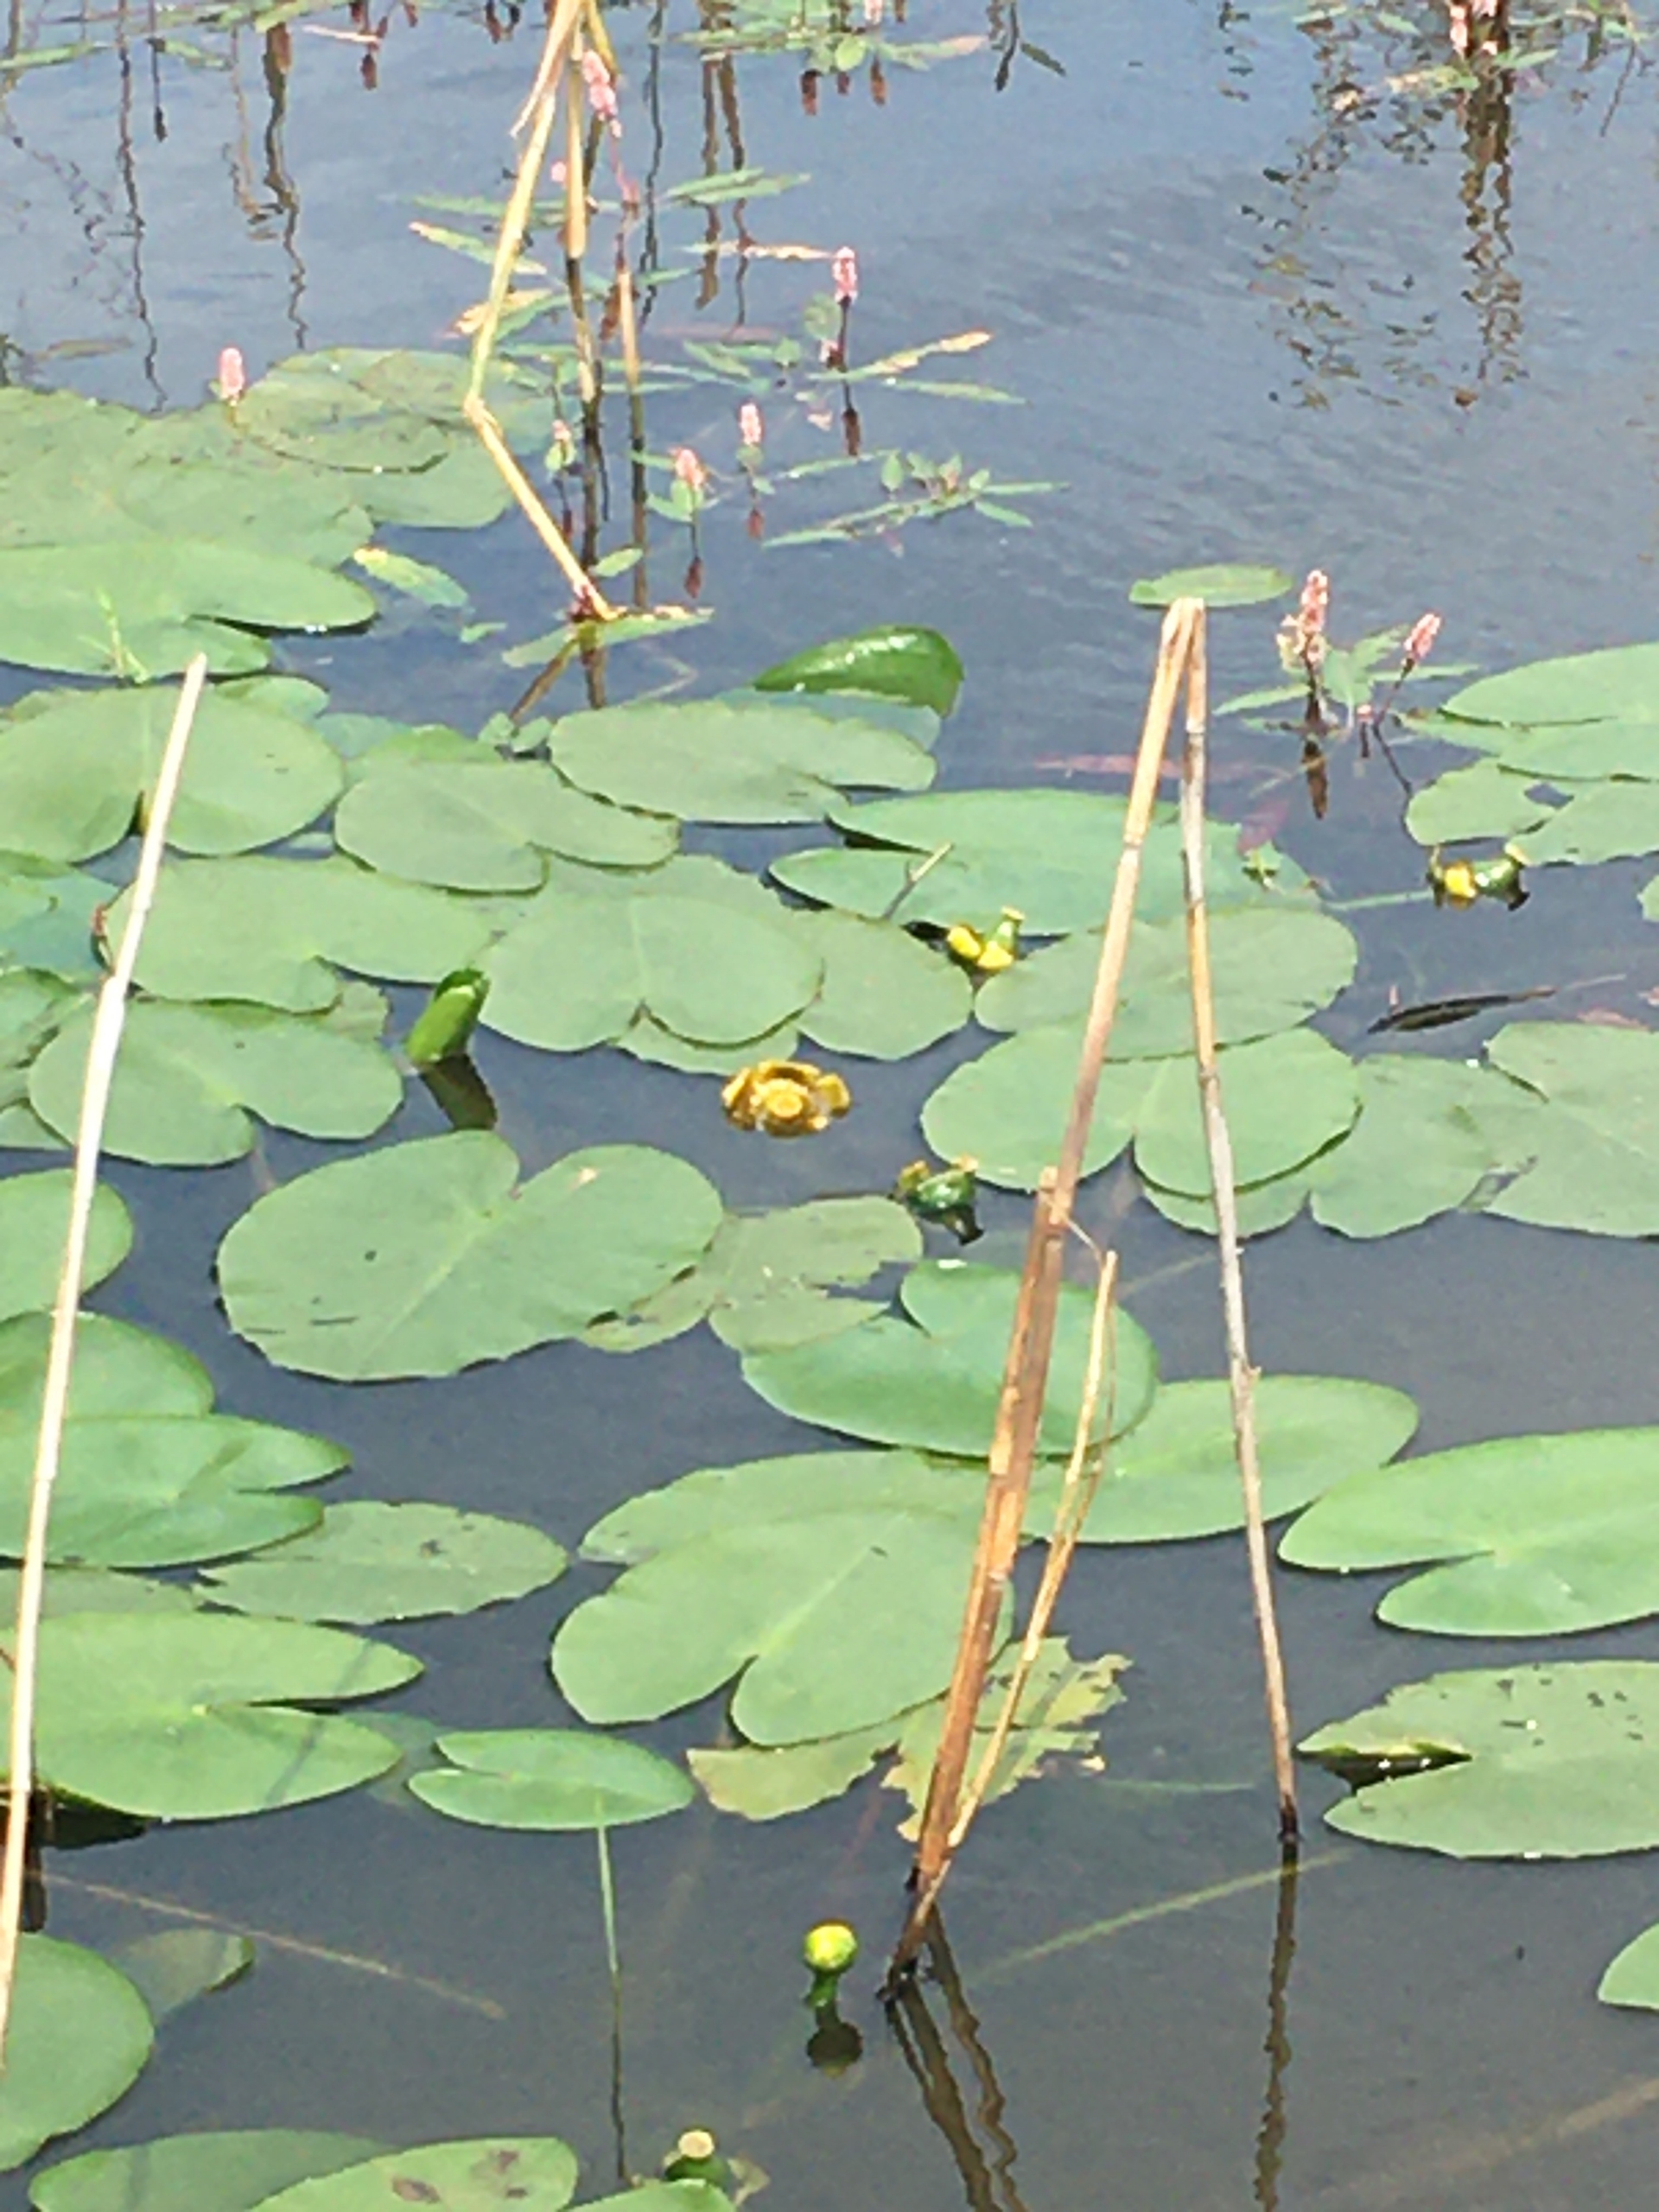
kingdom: Plantae
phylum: Tracheophyta
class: Magnoliopsida
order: Nymphaeales
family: Nymphaeaceae
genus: Nuphar
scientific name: Nuphar lutea
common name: Gul åkande
